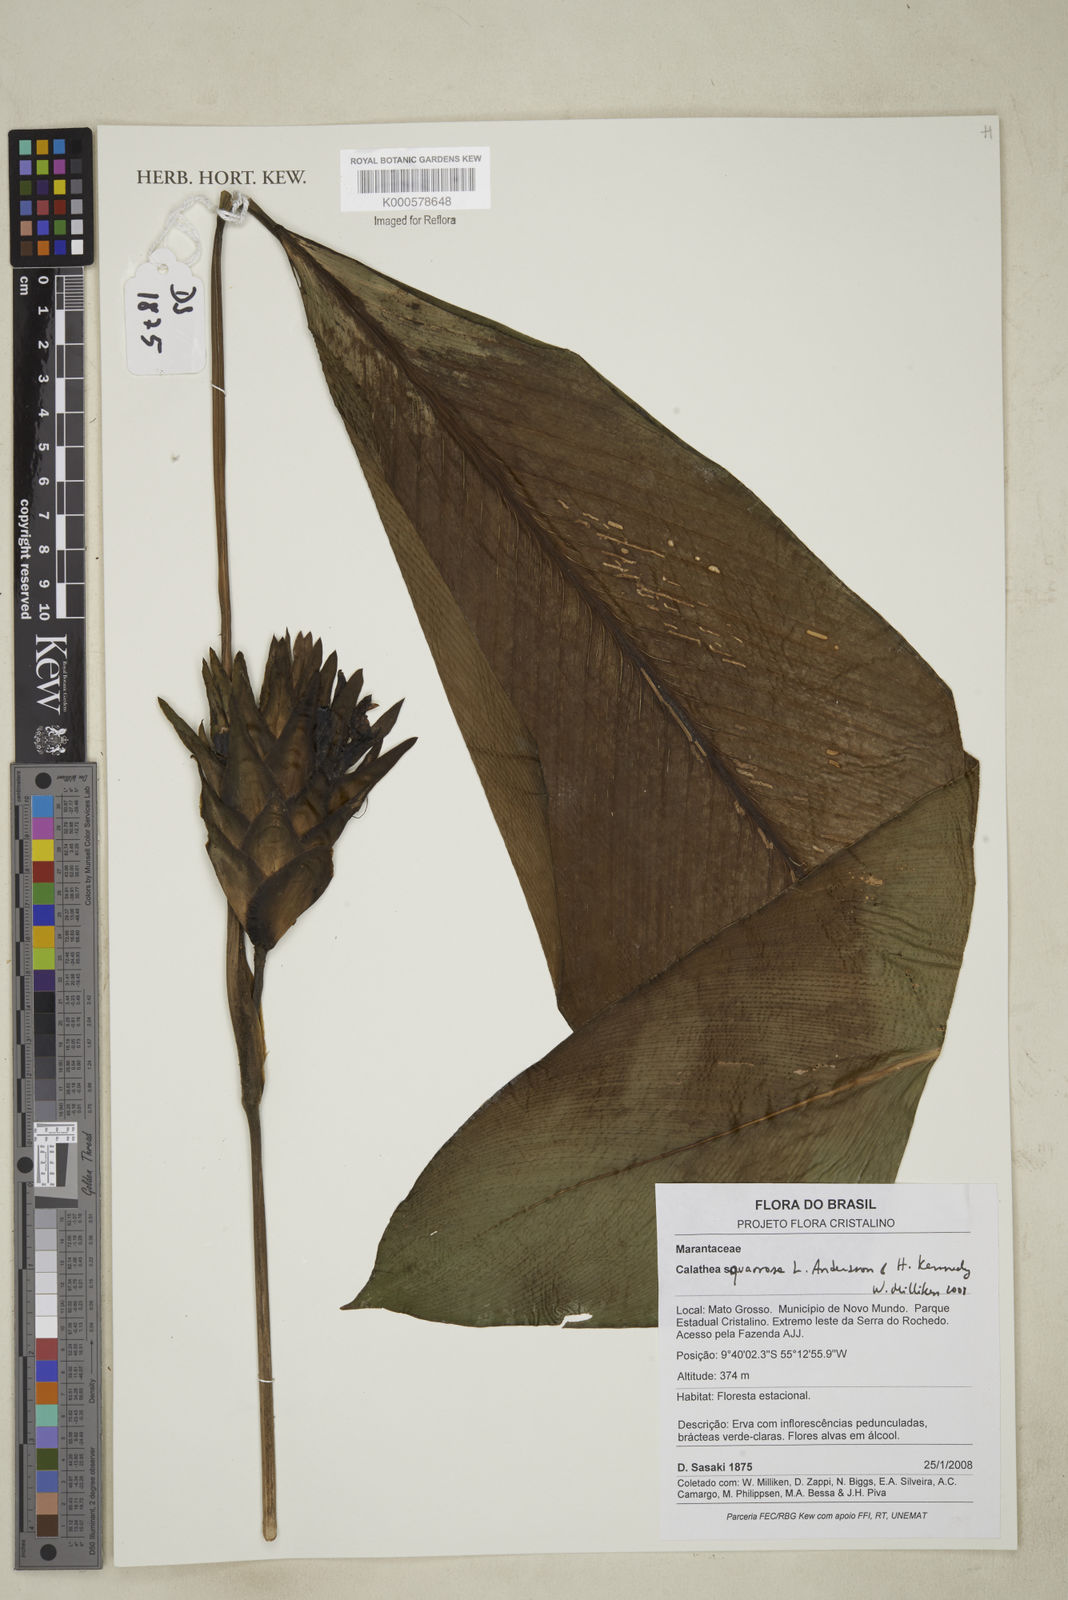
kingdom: Plantae
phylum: Tracheophyta
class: Liliopsida
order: Zingiberales
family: Marantaceae
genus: Goeppertia
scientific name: Goeppertia squarrosa
